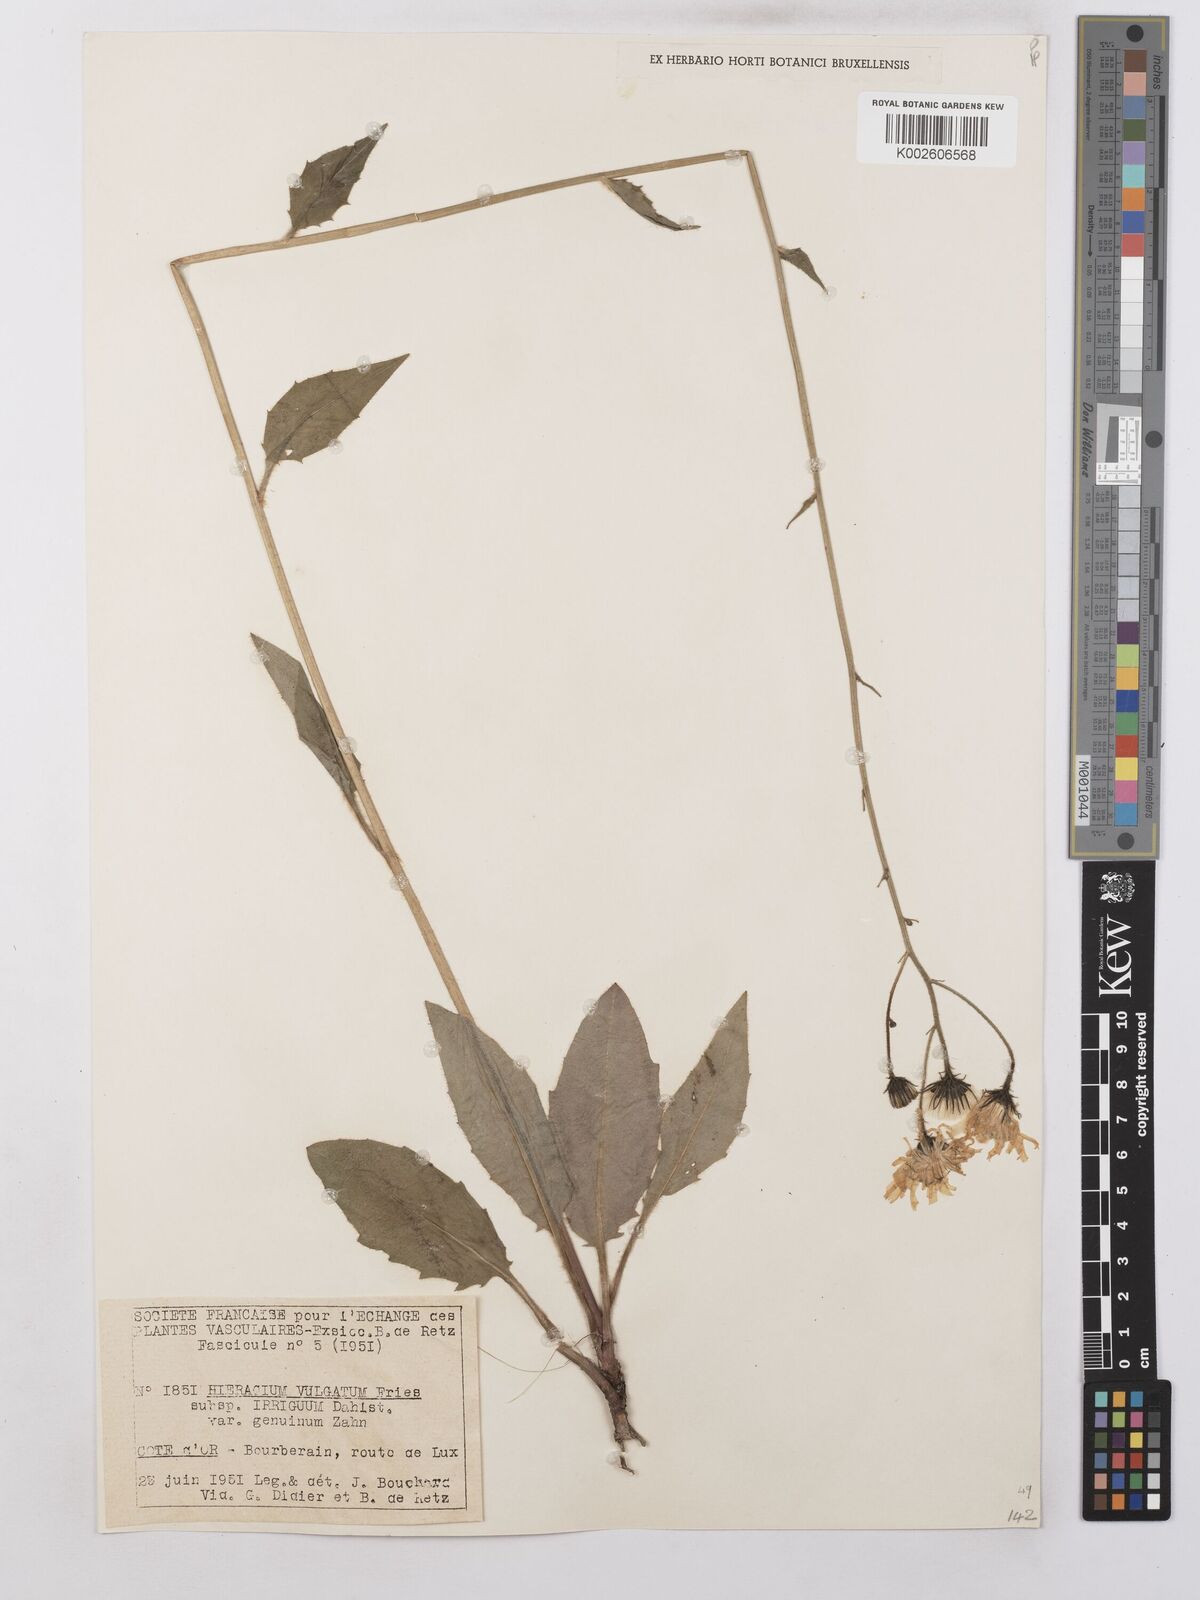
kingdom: Plantae
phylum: Tracheophyta
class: Magnoliopsida
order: Asterales
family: Asteraceae
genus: Hieracium
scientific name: Hieracium lachenalii
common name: Common hawkweed
